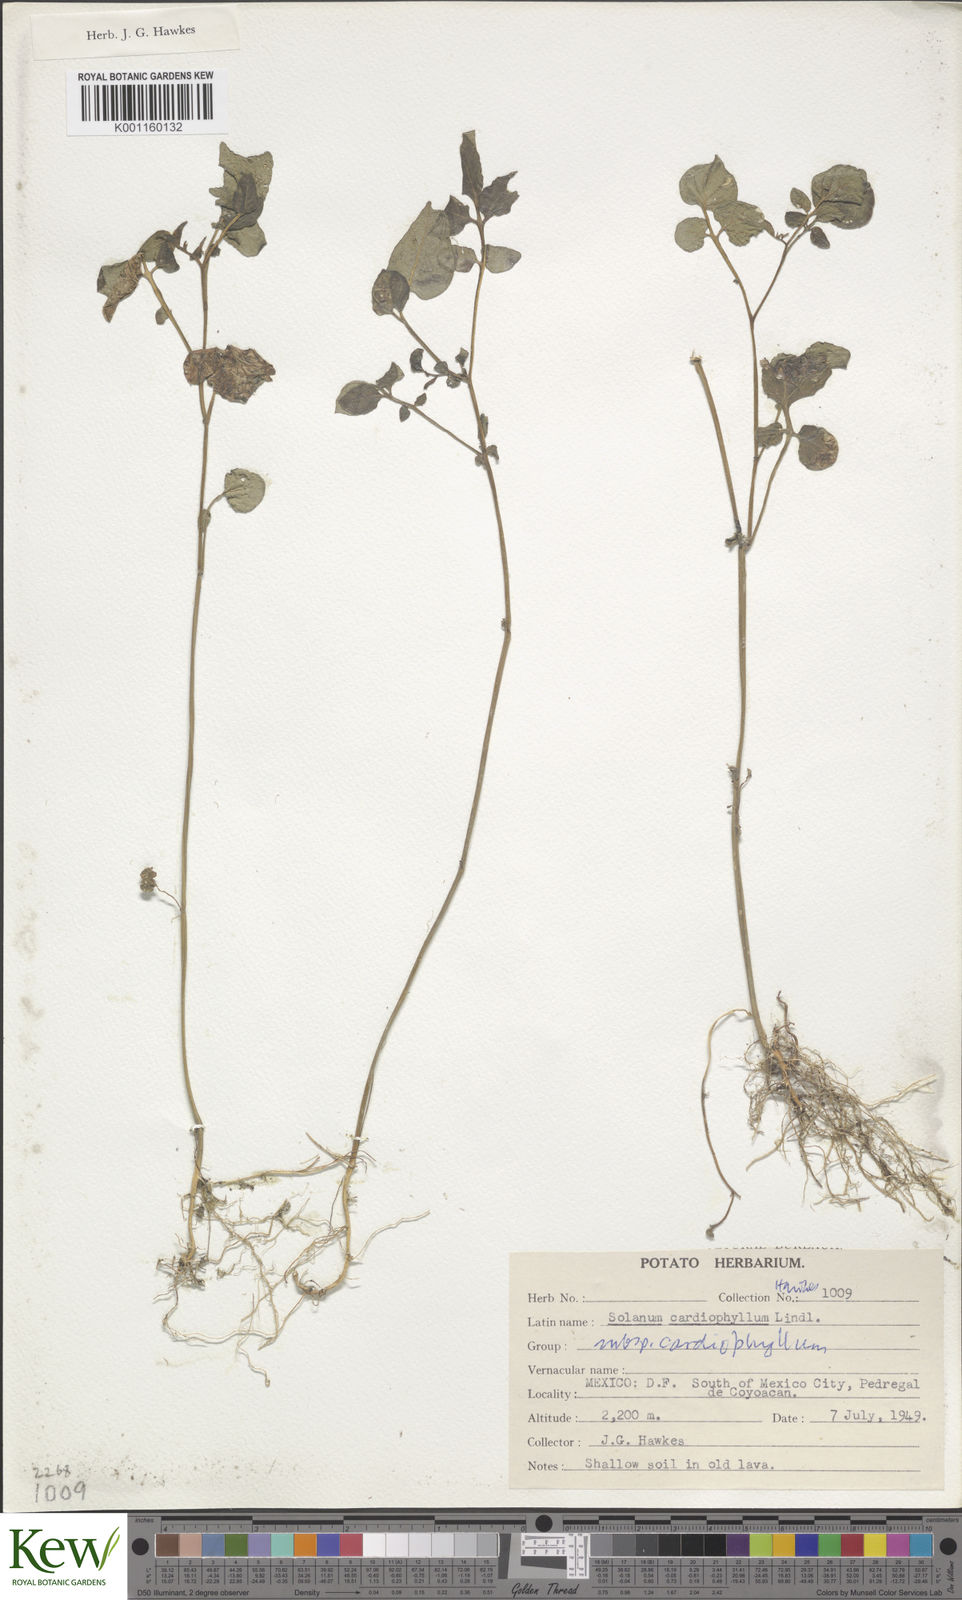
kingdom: Plantae
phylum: Tracheophyta
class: Magnoliopsida
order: Solanales
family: Solanaceae
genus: Solanum
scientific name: Solanum cardiophyllum
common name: Heartleaf horsenettle
